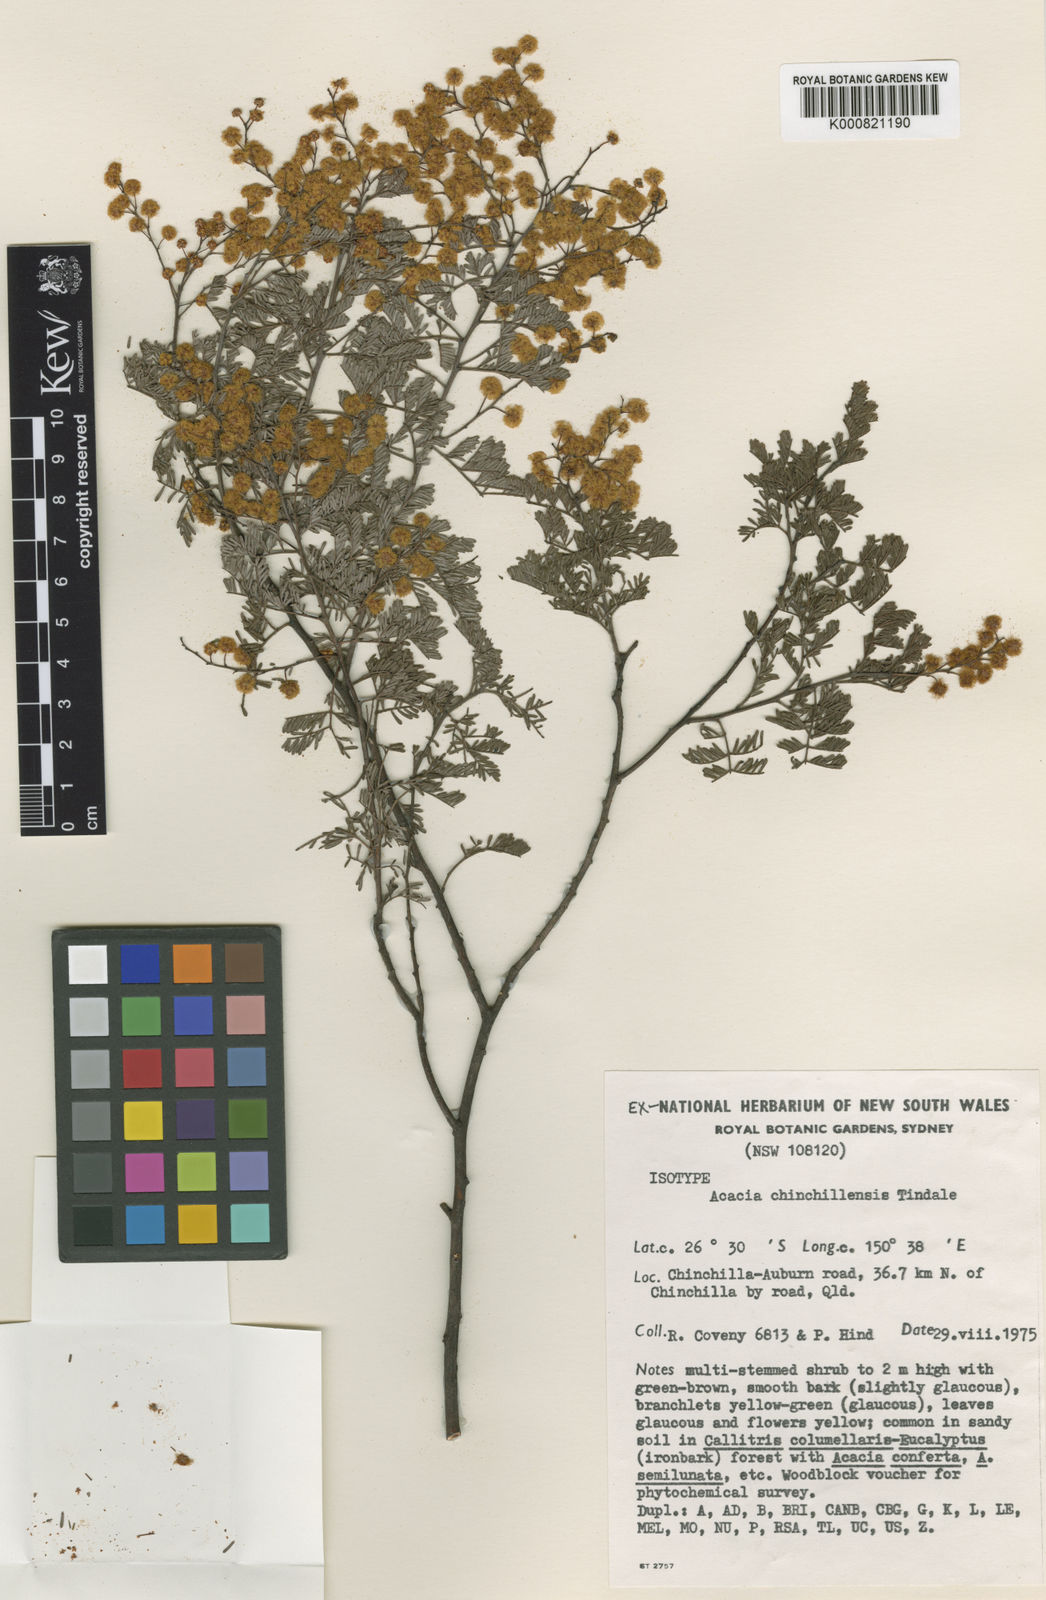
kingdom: Plantae
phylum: Tracheophyta
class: Magnoliopsida
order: Fabales
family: Fabaceae
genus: Acacia
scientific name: Acacia chinchillensis
